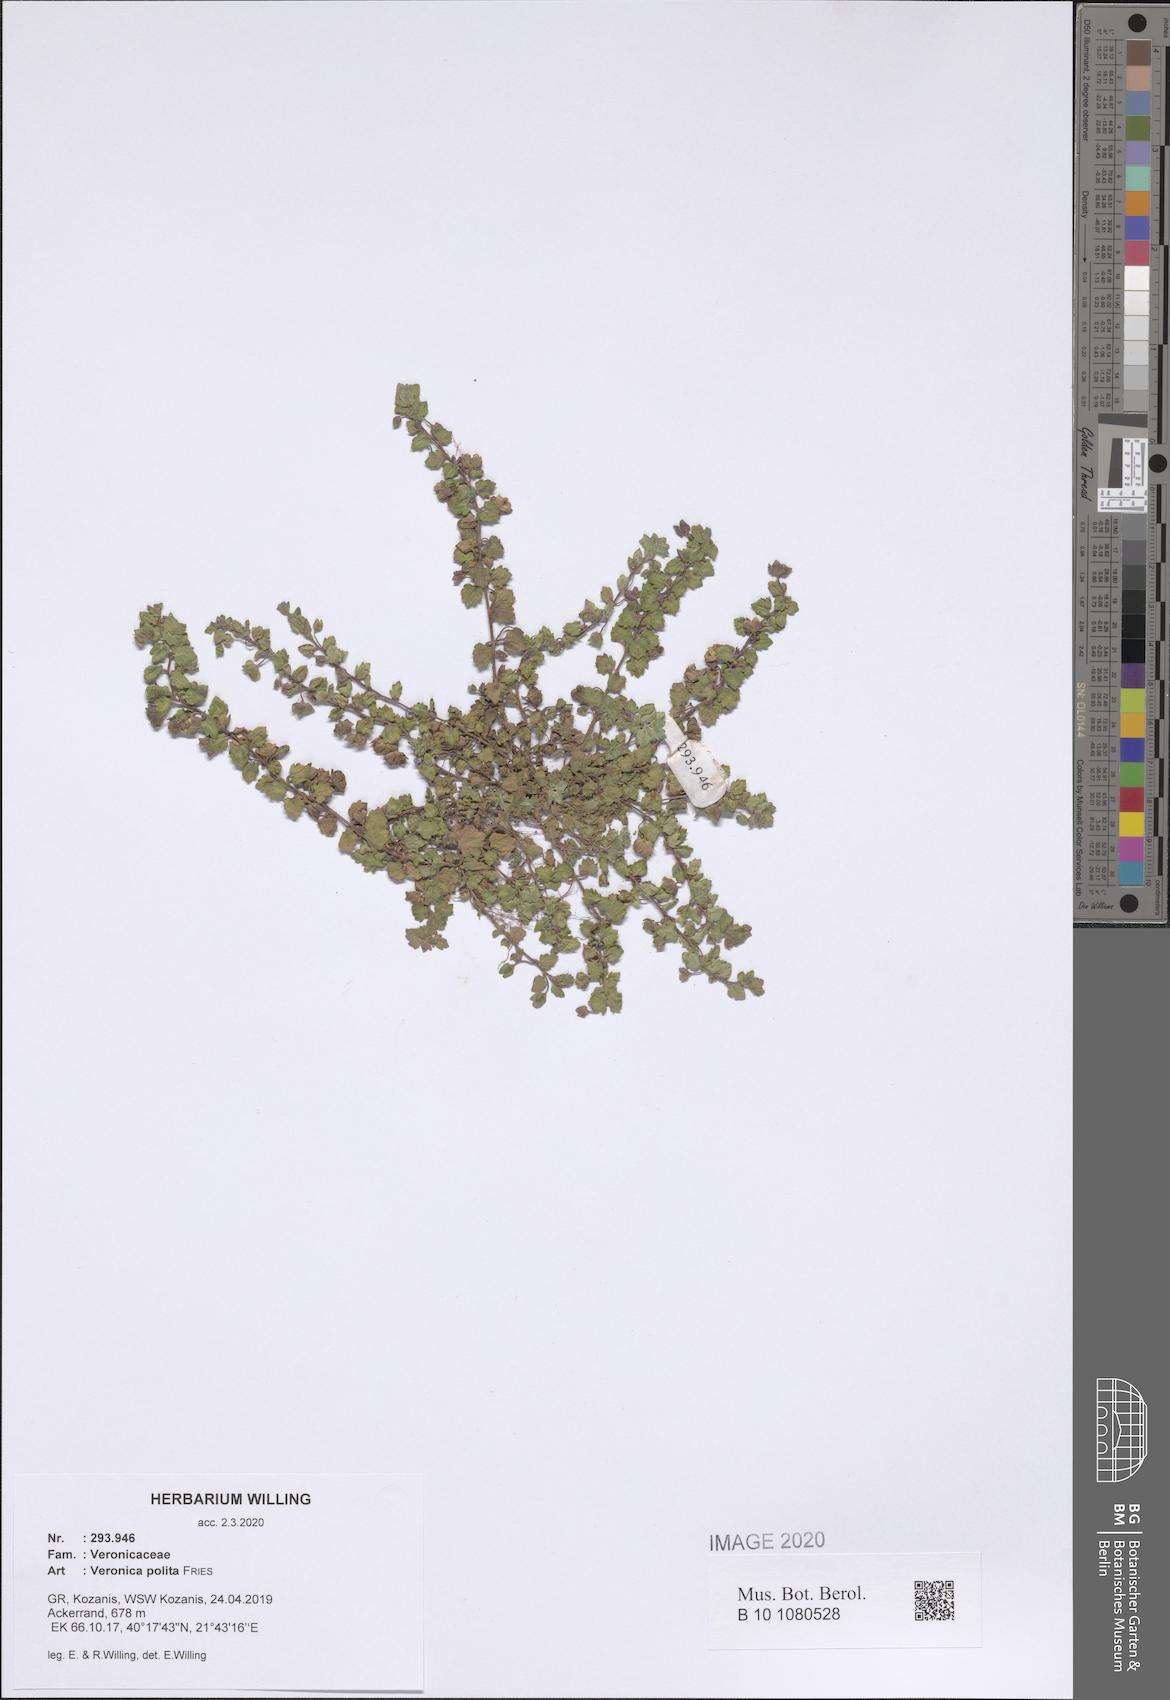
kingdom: Plantae
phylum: Tracheophyta
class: Magnoliopsida
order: Lamiales
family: Plantaginaceae
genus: Veronica
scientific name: Veronica polita
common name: Grey field-speedwell
